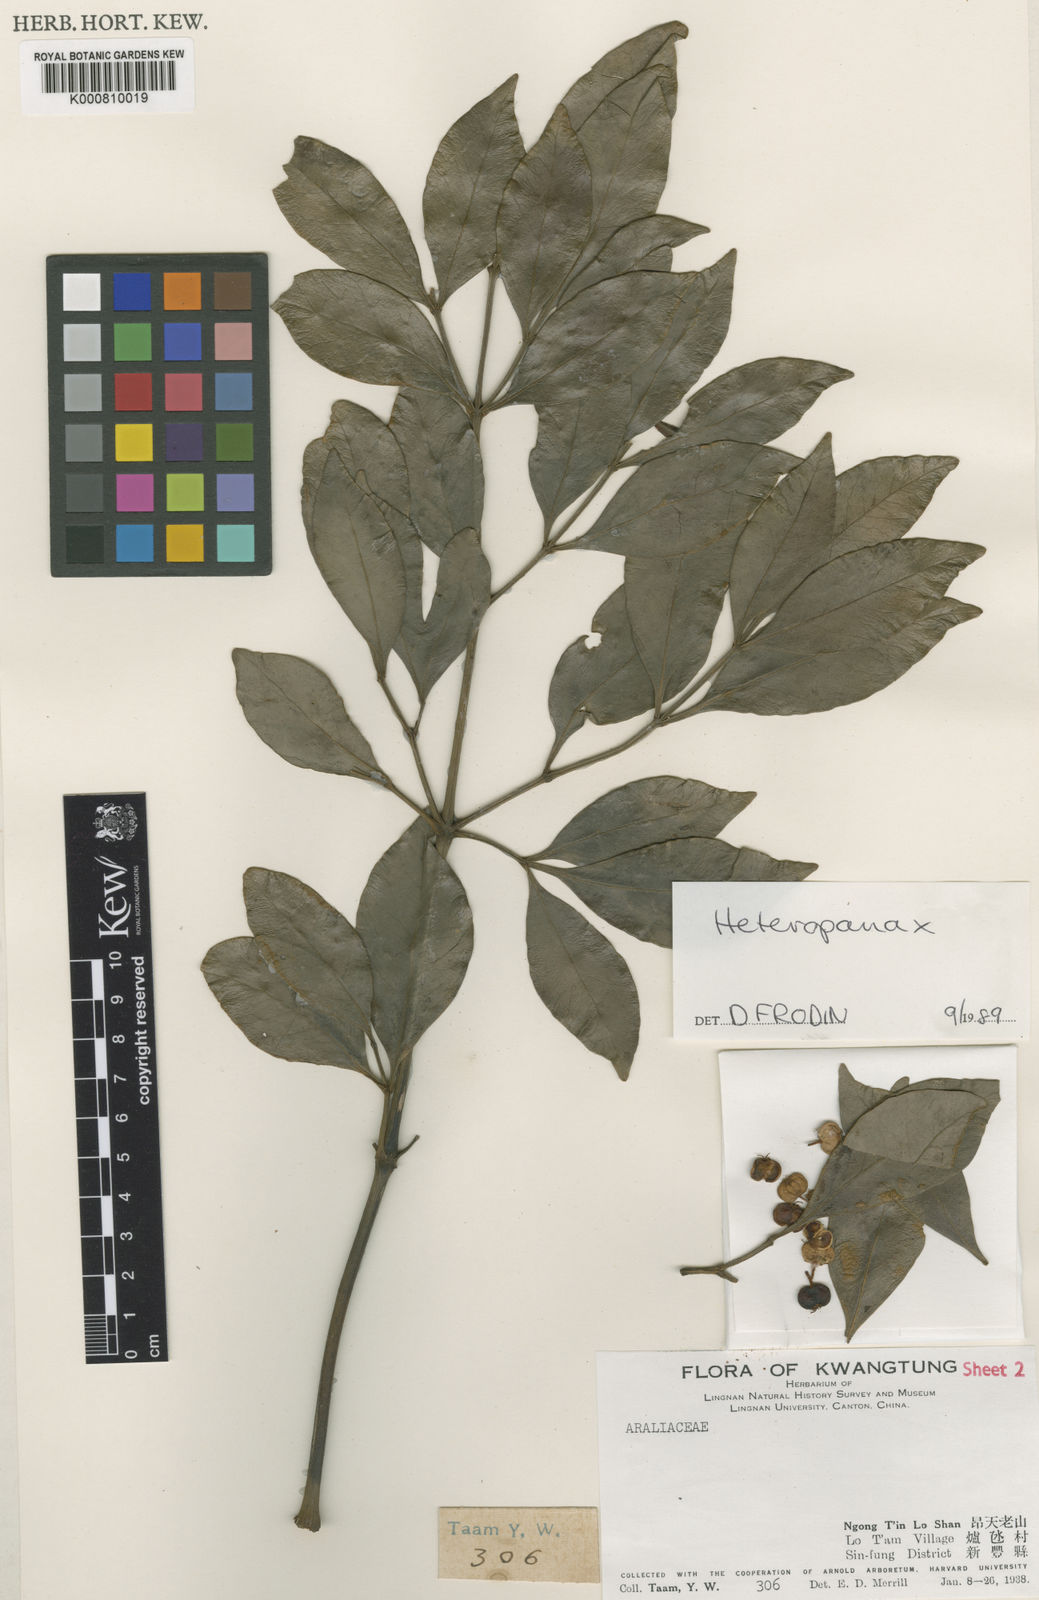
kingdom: Plantae
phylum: Tracheophyta
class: Magnoliopsida
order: Apiales
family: Araliaceae
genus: Heteropanax
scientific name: Heteropanax brevipedicellatus
